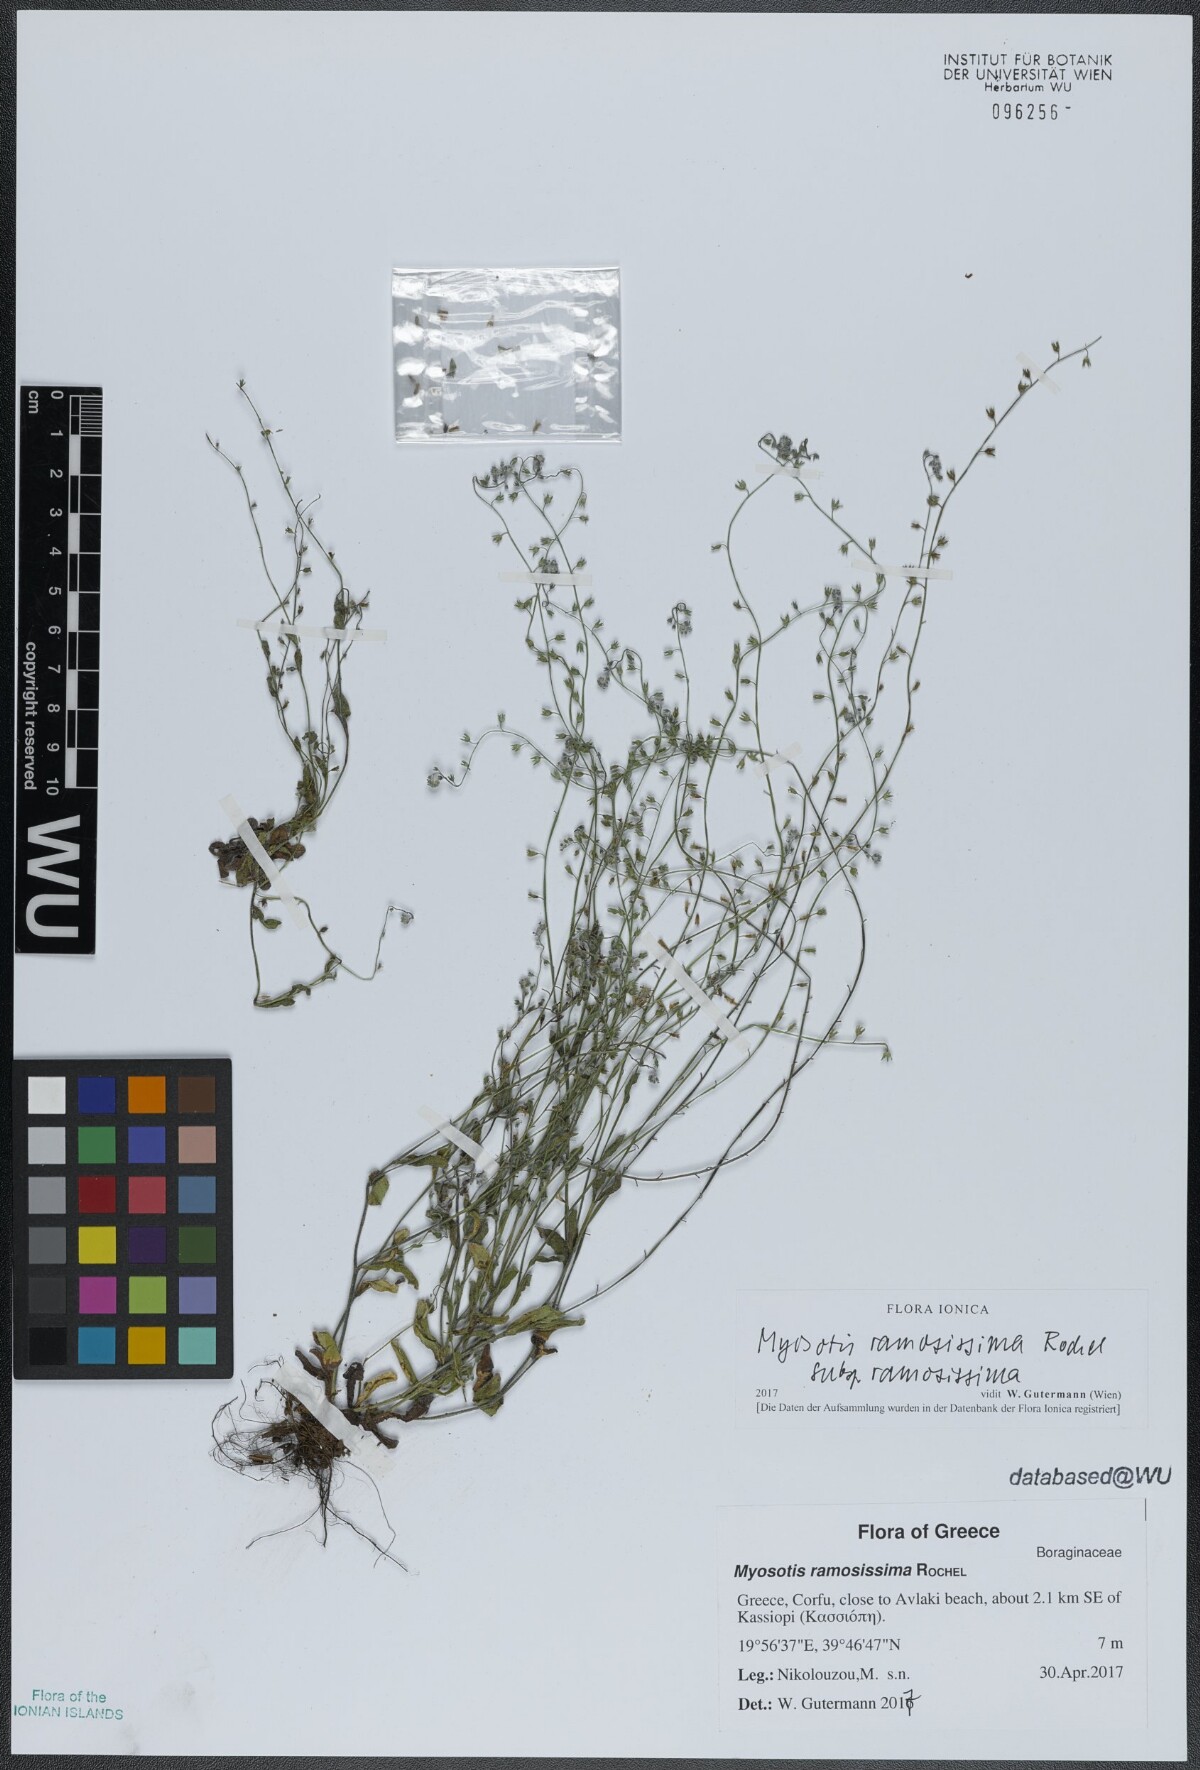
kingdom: Plantae
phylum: Tracheophyta
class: Magnoliopsida
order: Boraginales
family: Boraginaceae
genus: Myosotis
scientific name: Myosotis ramosissima
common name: Early forget-me-not
